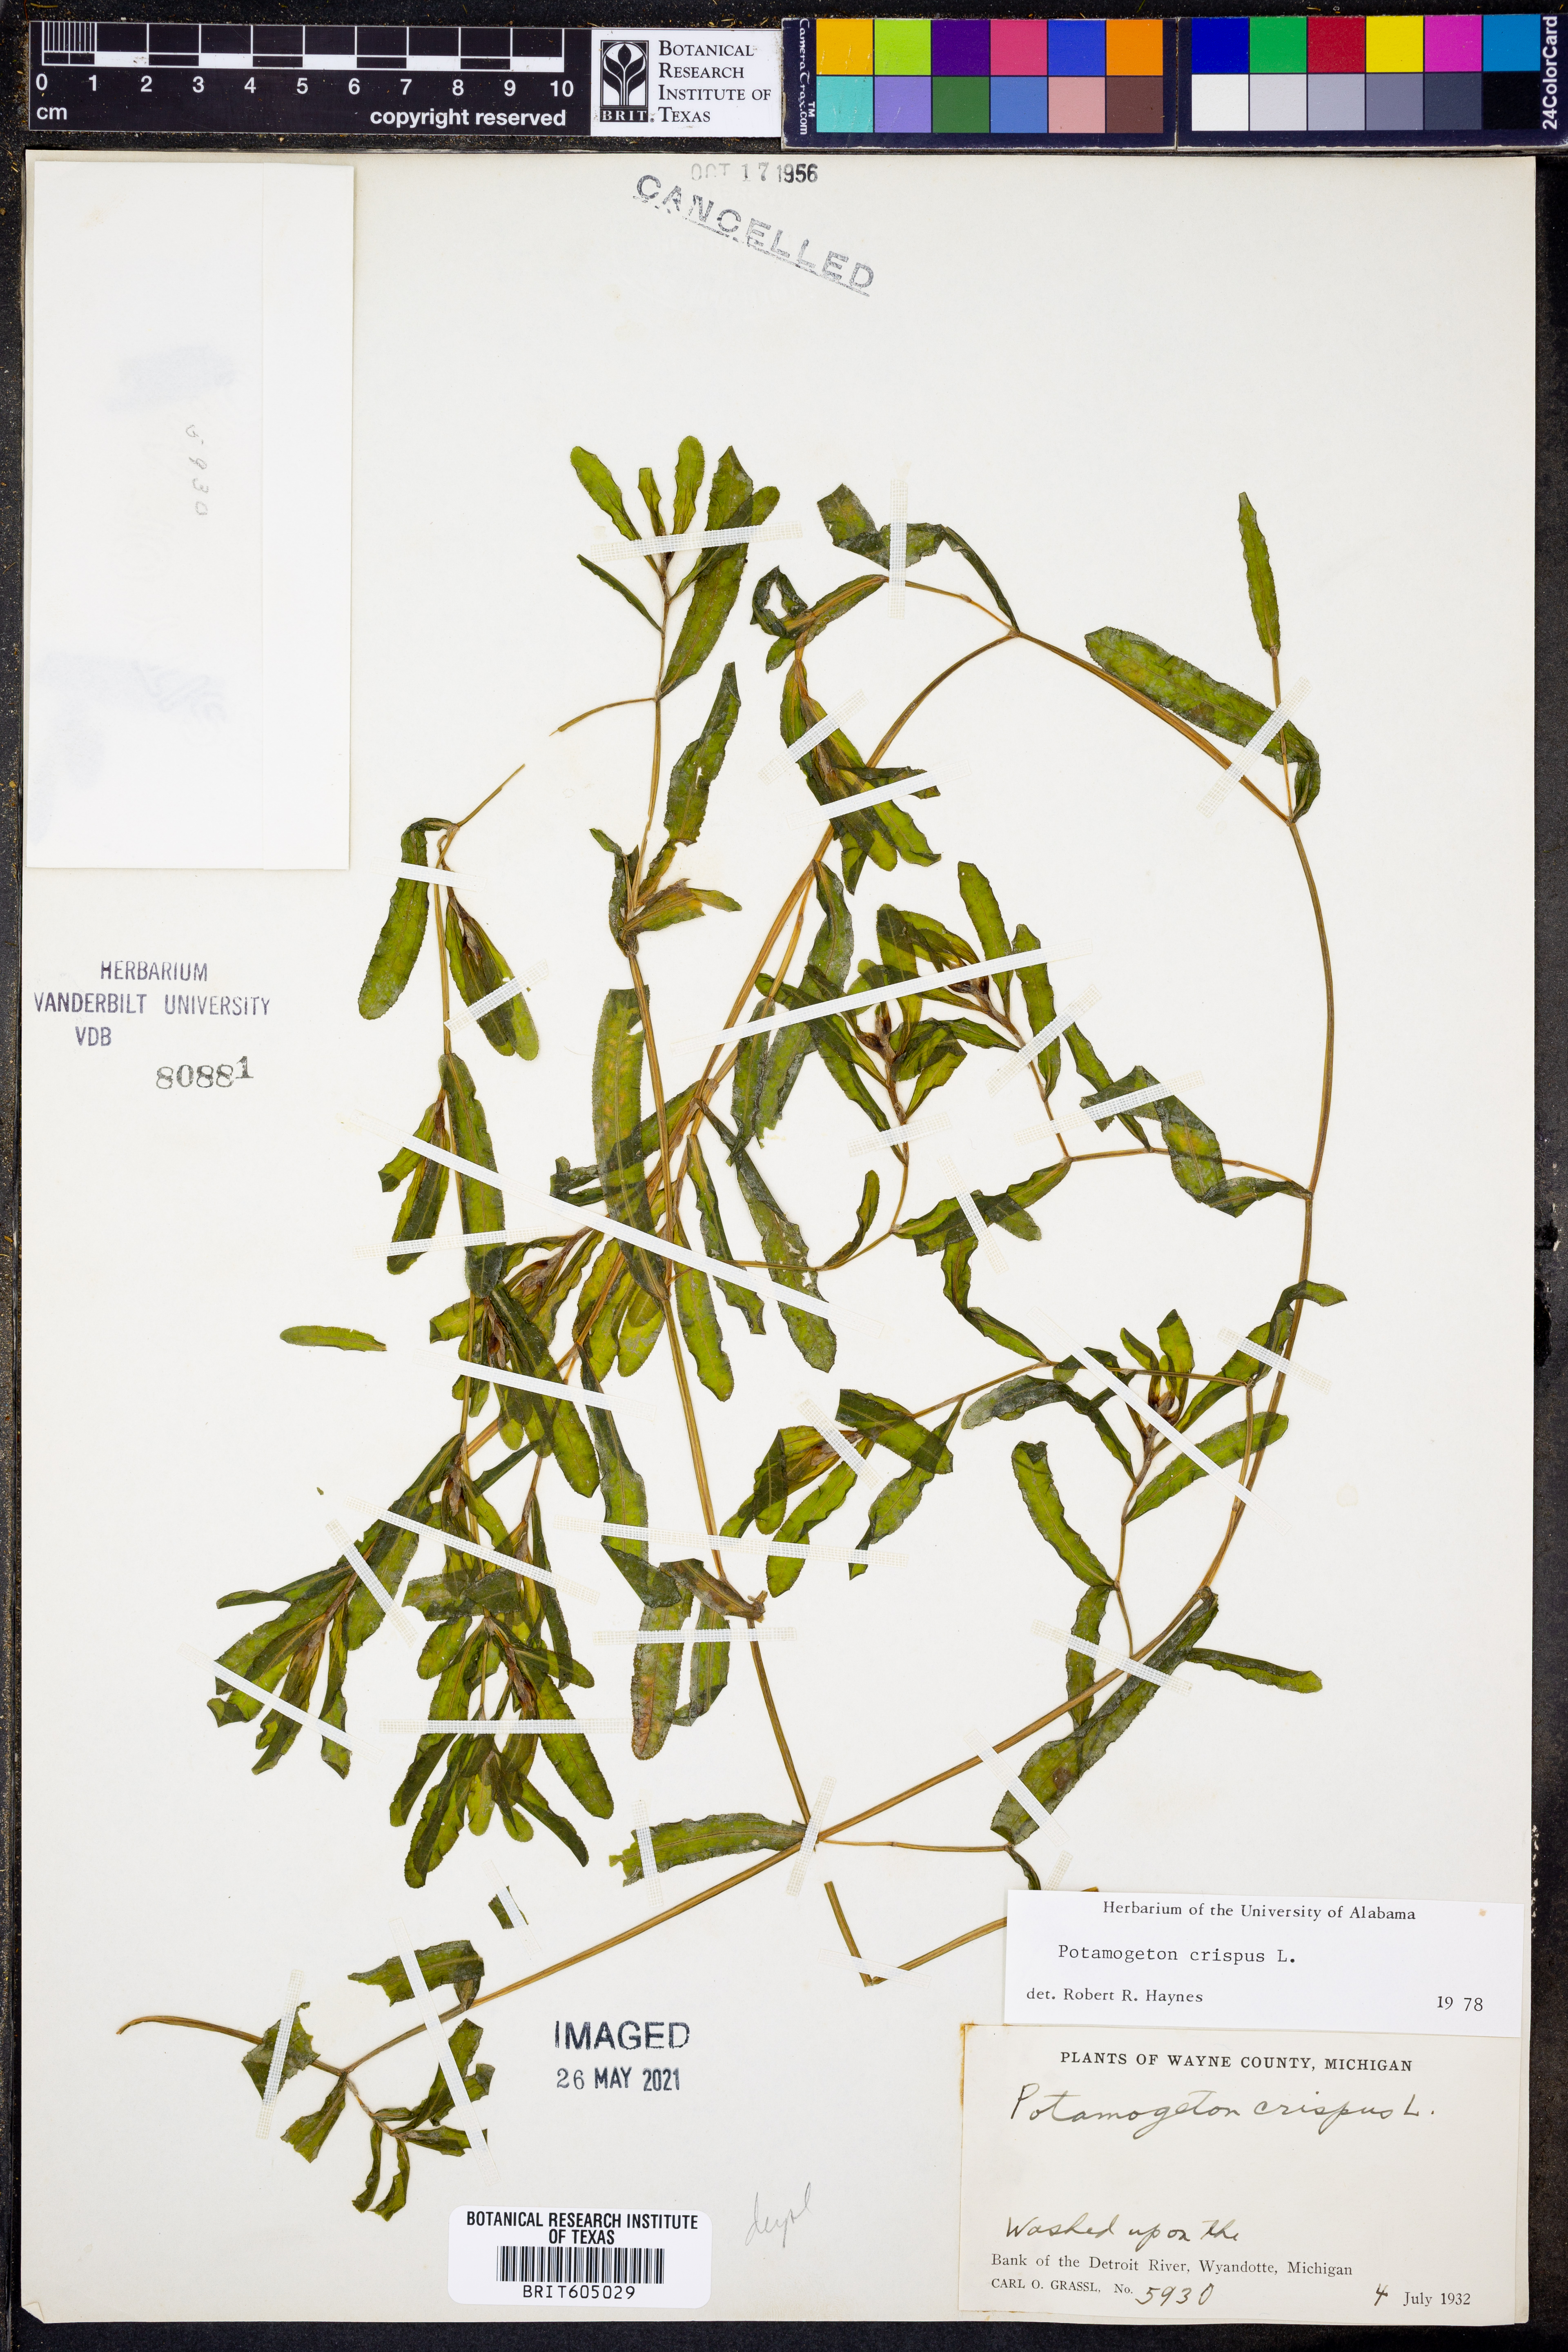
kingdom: Plantae
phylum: Tracheophyta
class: Liliopsida
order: Alismatales
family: Potamogetonaceae
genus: Potamogeton
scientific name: Potamogeton crispus
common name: Curled pondweed
